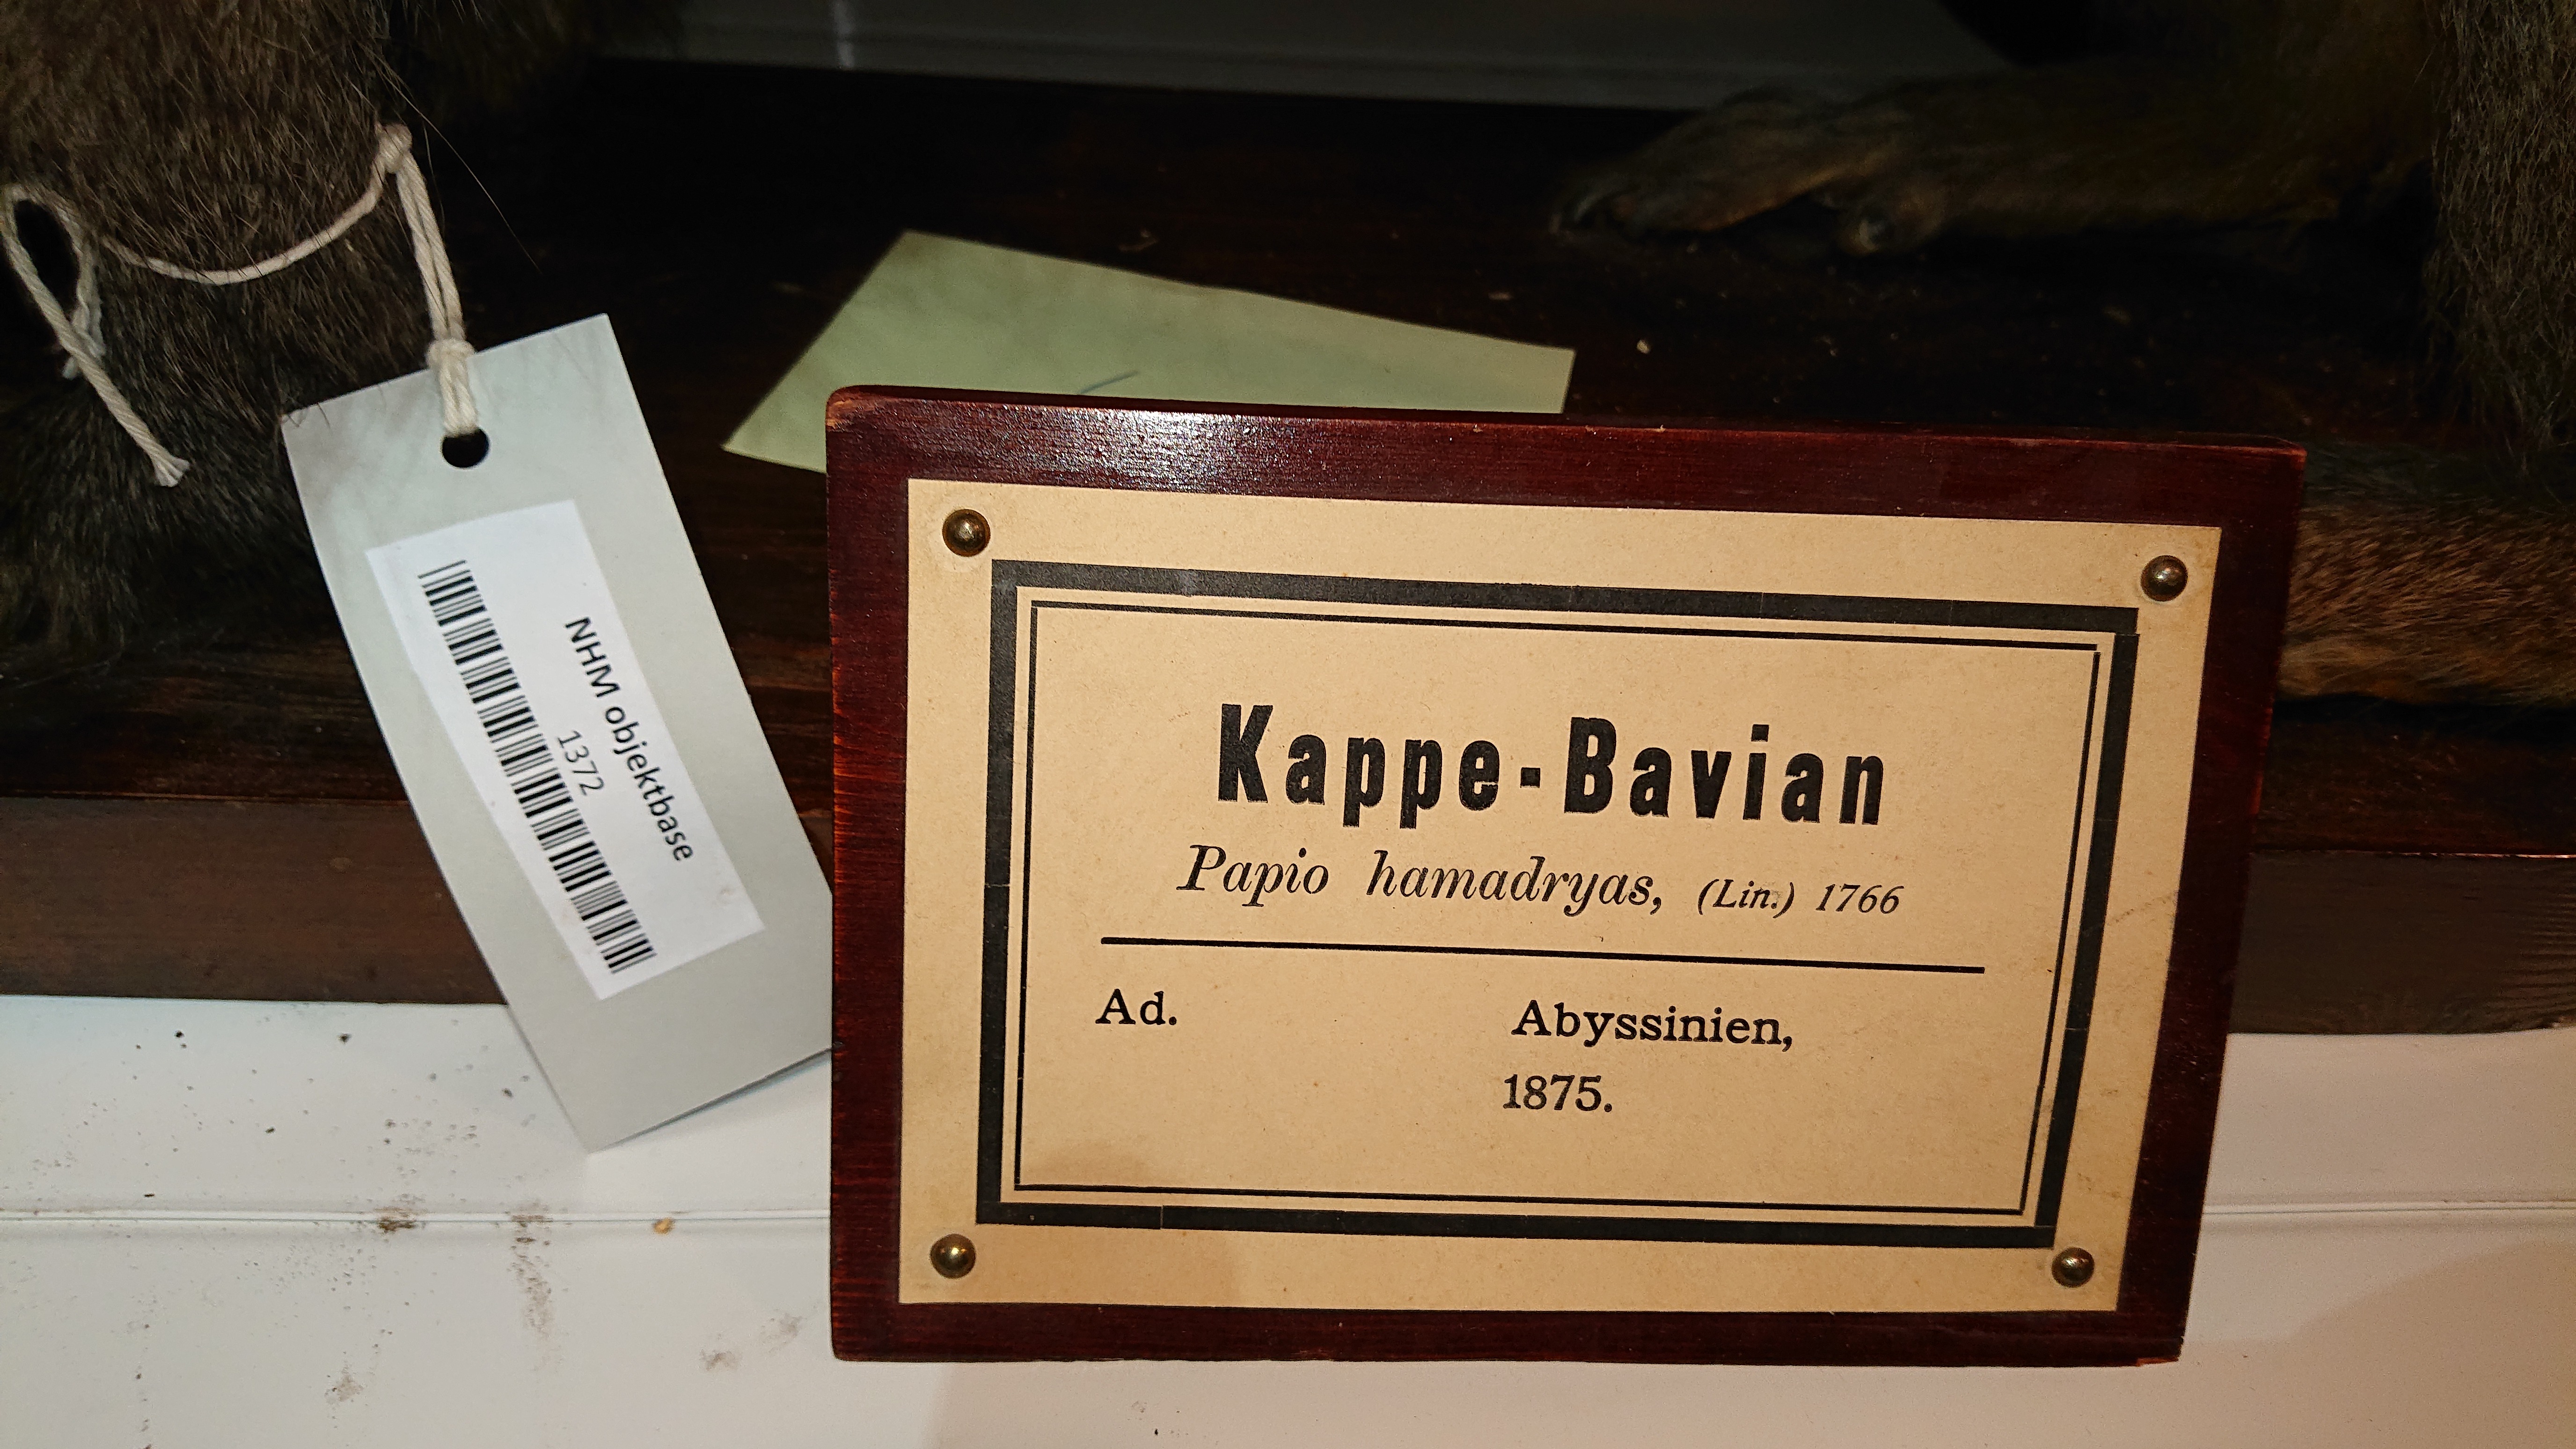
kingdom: Animalia
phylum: Chordata
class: Mammalia
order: Primates
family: Cercopithecidae
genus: Papio
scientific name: Papio hamadryas
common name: Hamadryas baboon
